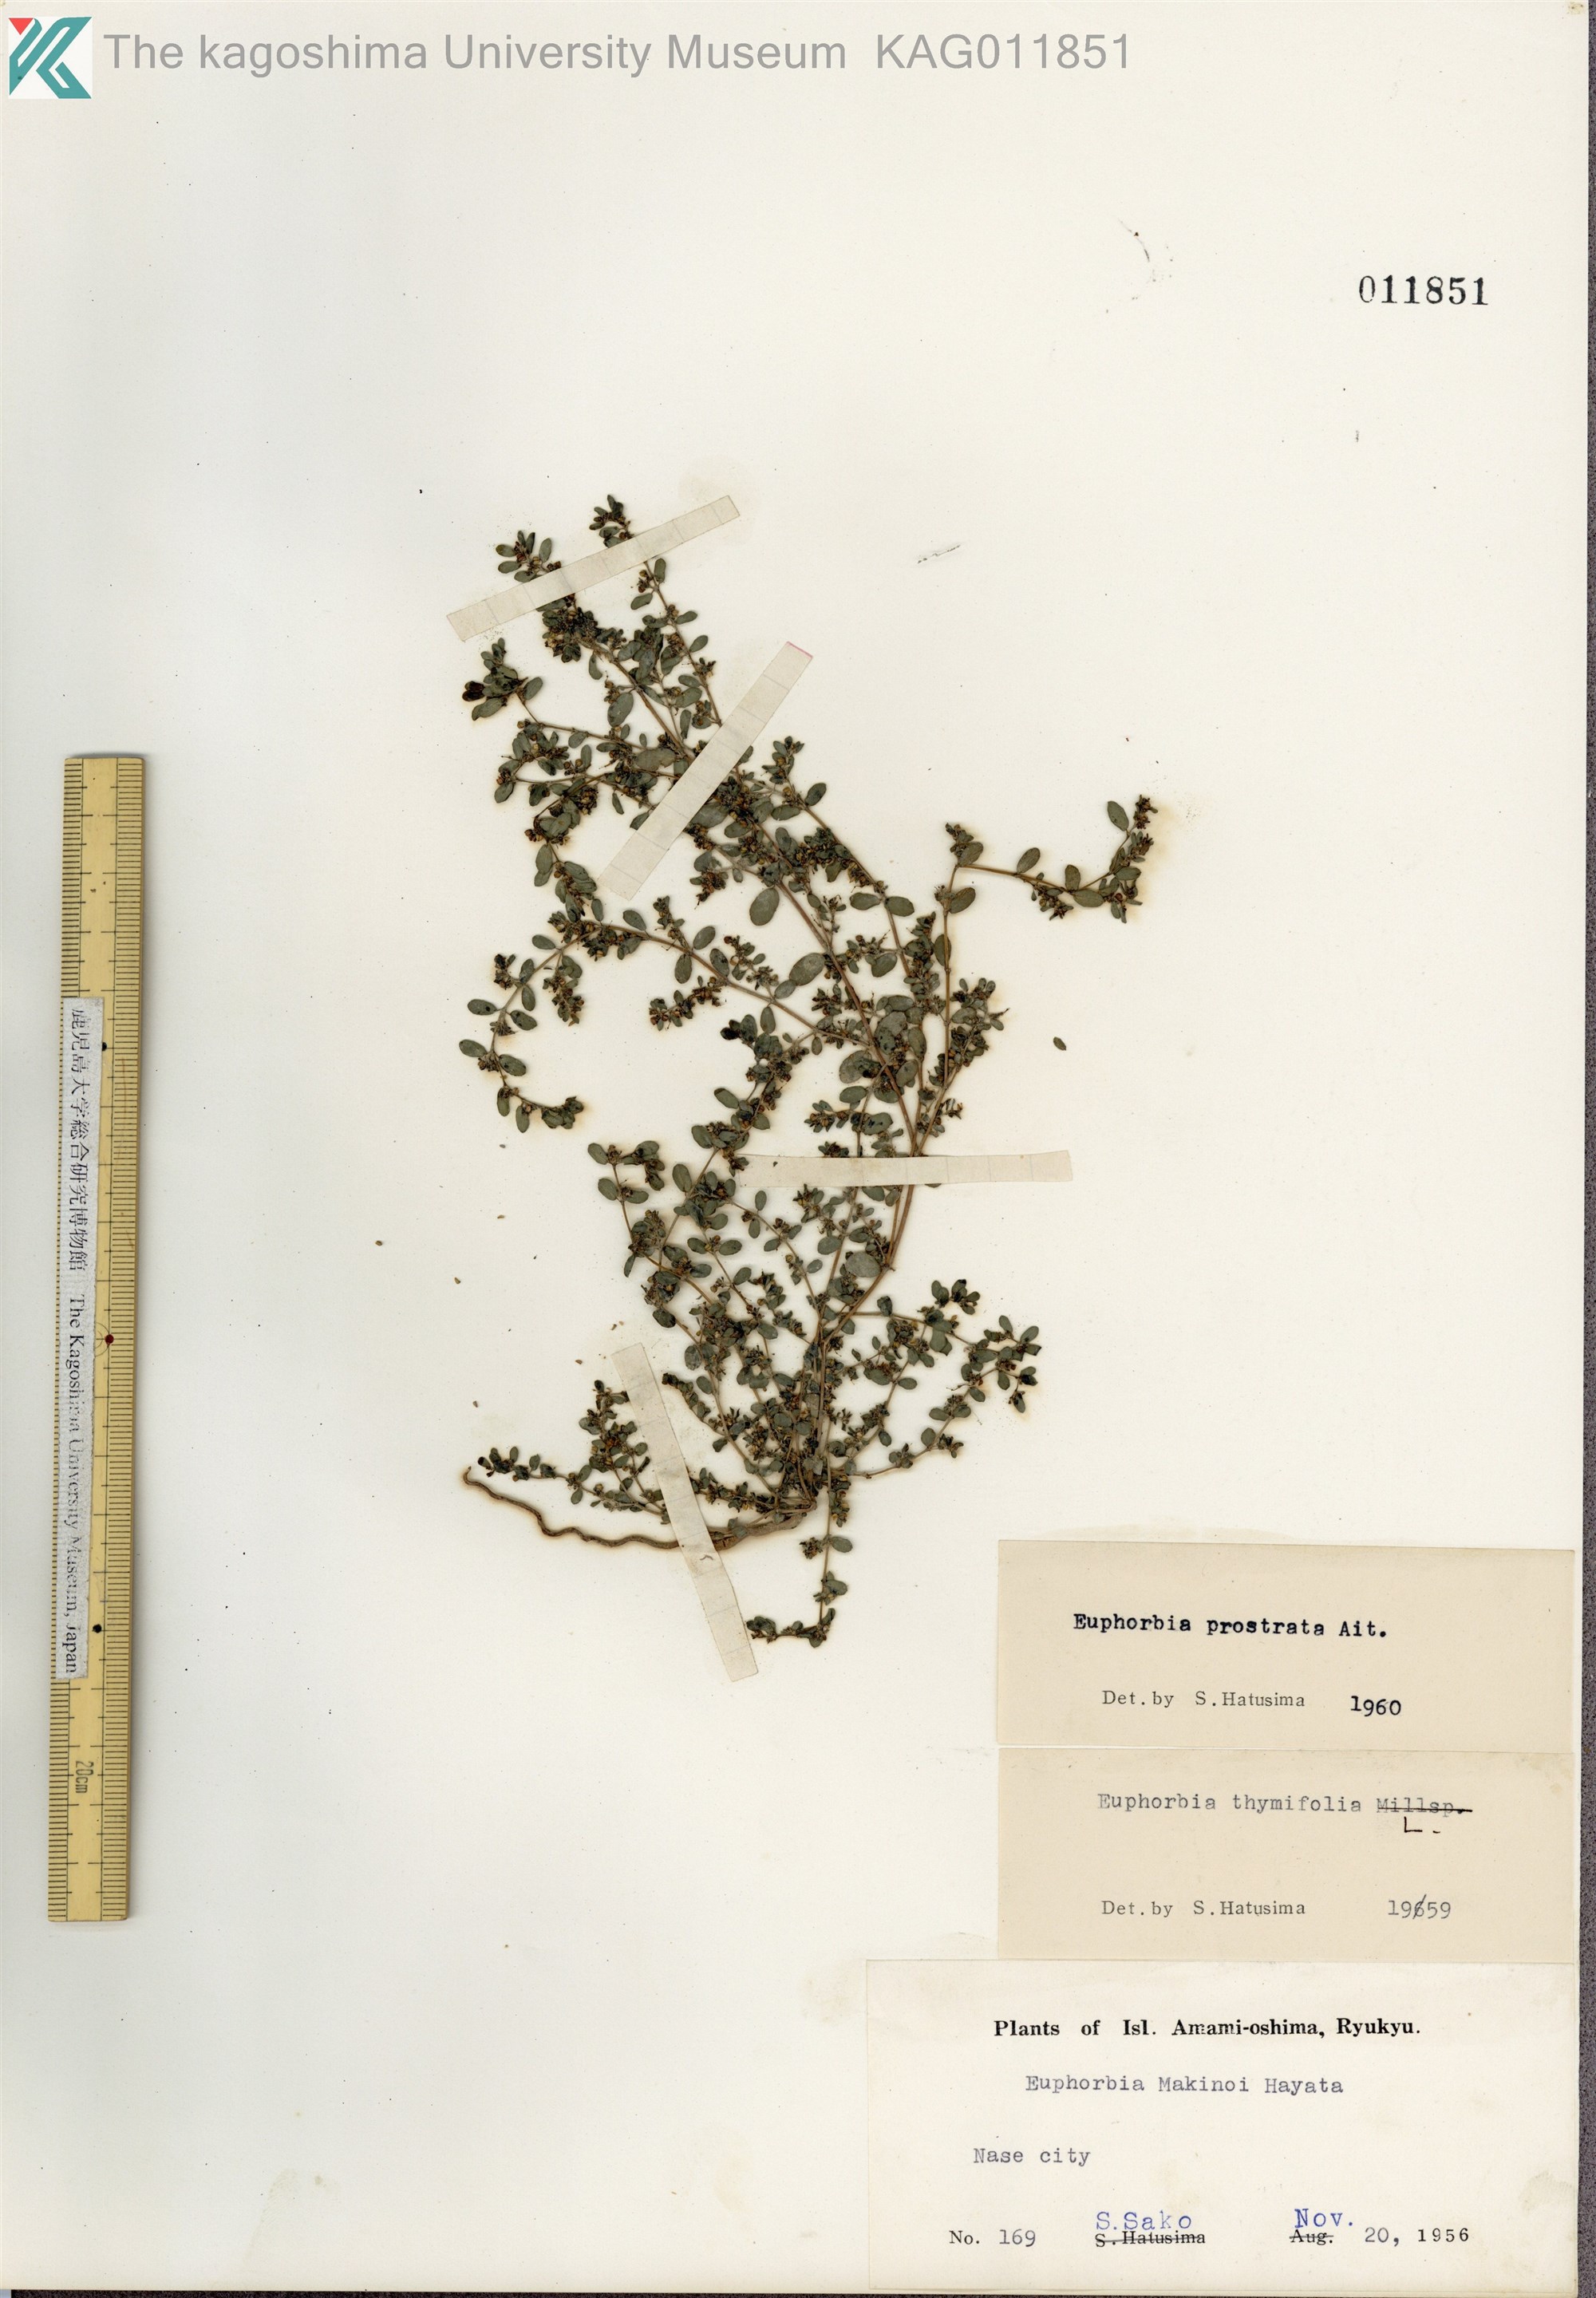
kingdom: Plantae
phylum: Tracheophyta
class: Magnoliopsida
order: Malpighiales
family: Euphorbiaceae
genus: Euphorbia
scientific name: Euphorbia prostrata
